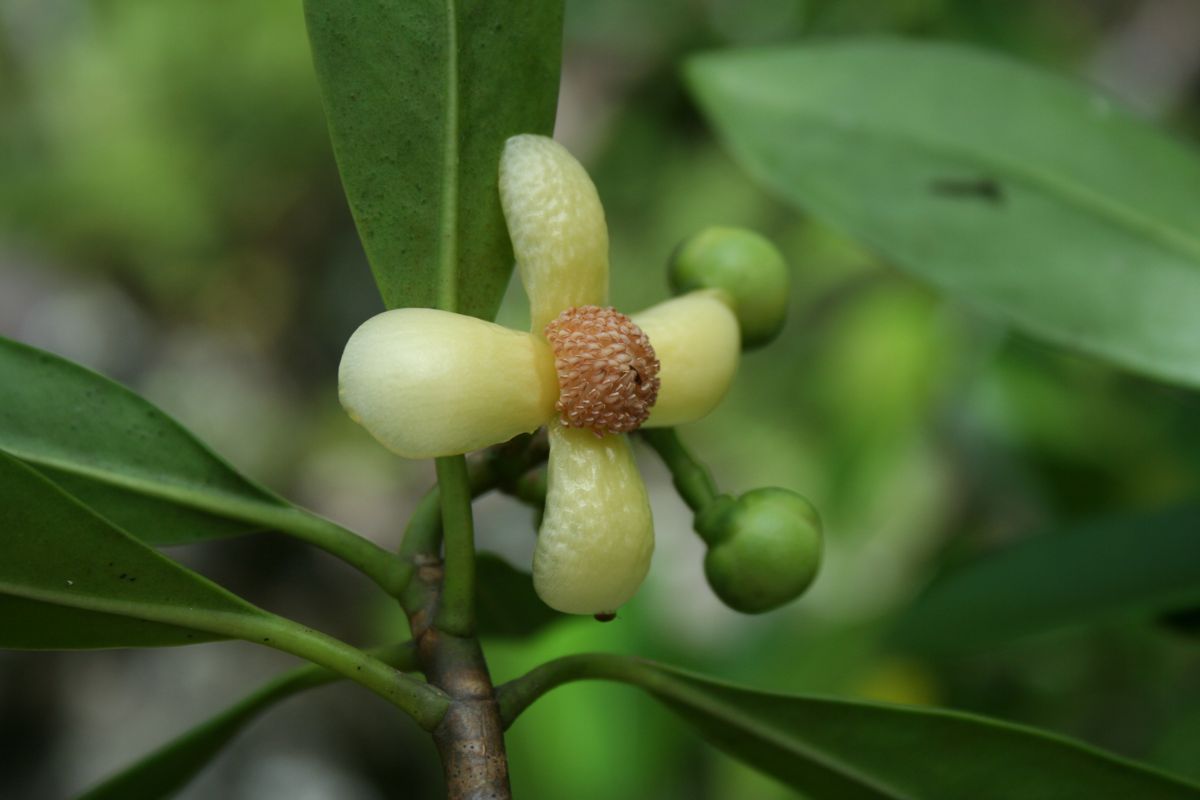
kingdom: Plantae
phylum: Tracheophyta
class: Magnoliopsida
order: Malpighiales
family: Clusiaceae
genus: Clusia
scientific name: Clusia
